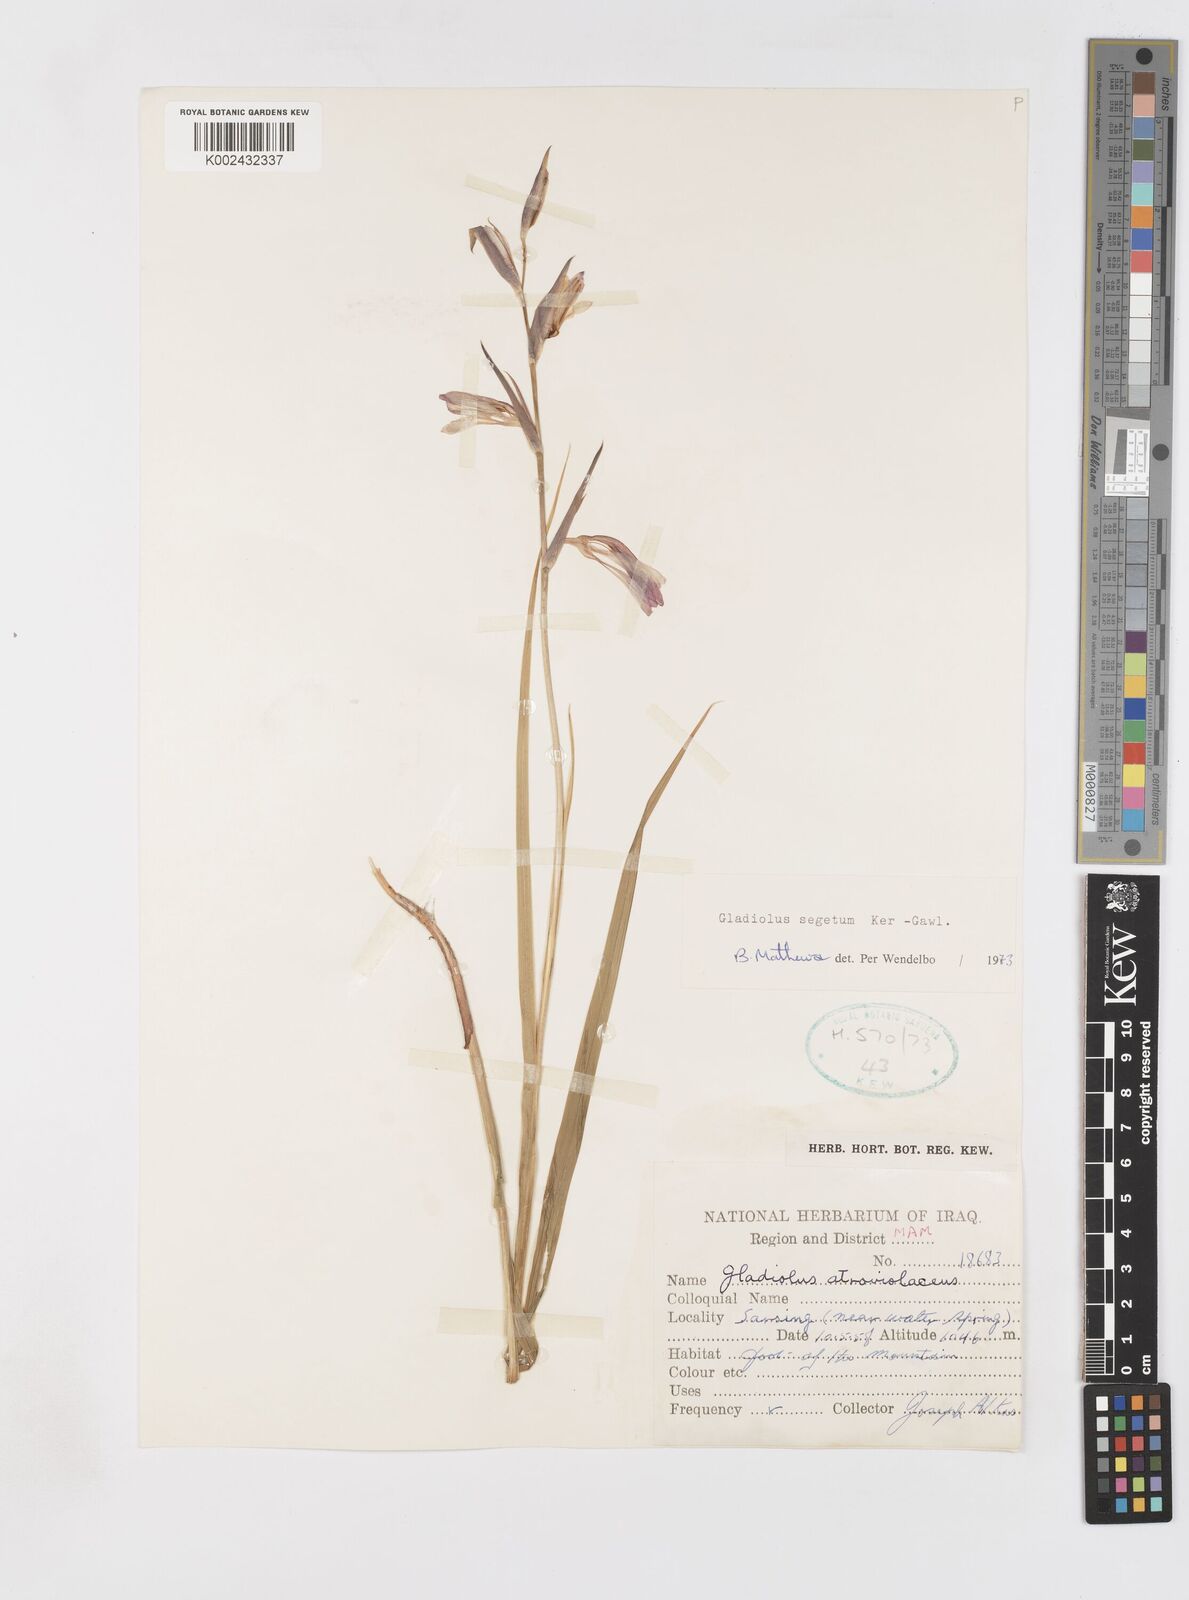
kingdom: Plantae
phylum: Tracheophyta
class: Liliopsida
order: Asparagales
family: Iridaceae
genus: Gladiolus
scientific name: Gladiolus italicus
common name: Field gladiolus
